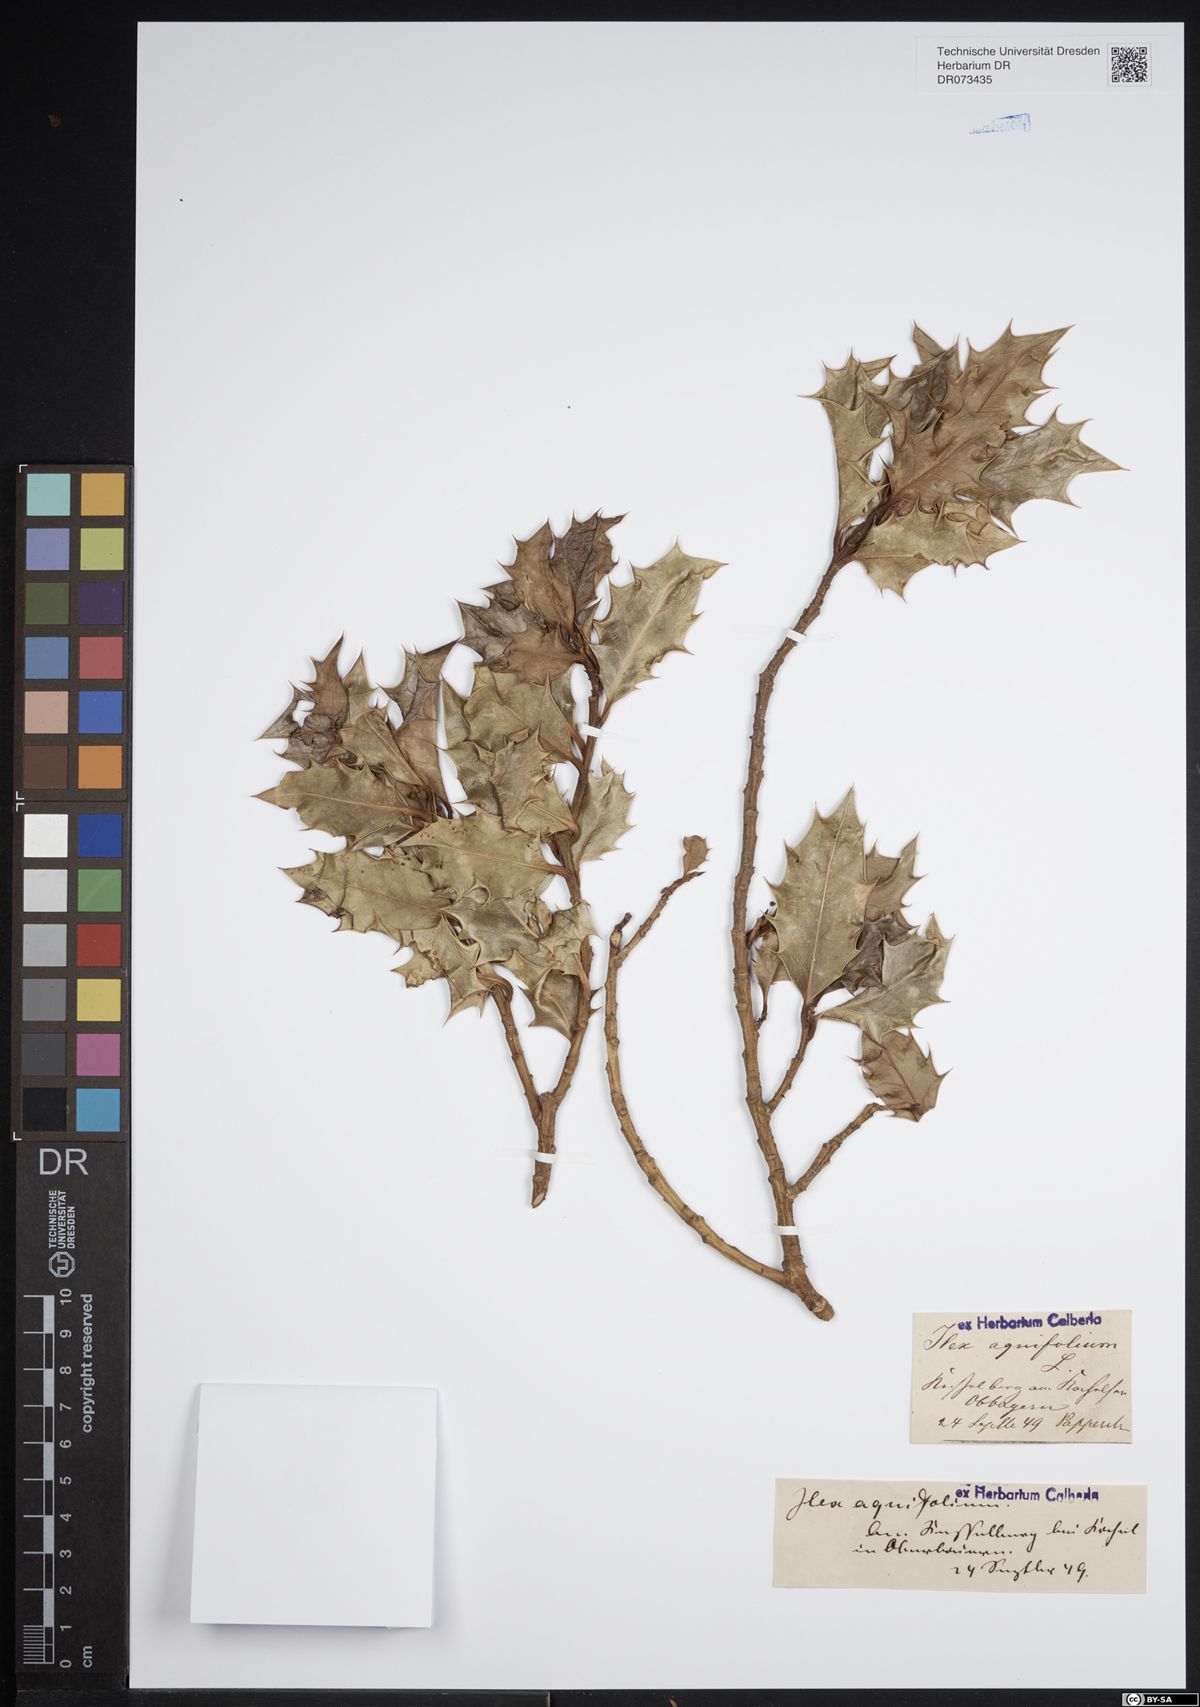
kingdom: Plantae
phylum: Tracheophyta
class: Magnoliopsida
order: Aquifoliales
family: Aquifoliaceae
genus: Ilex
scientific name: Ilex aquifolium
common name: English holly
